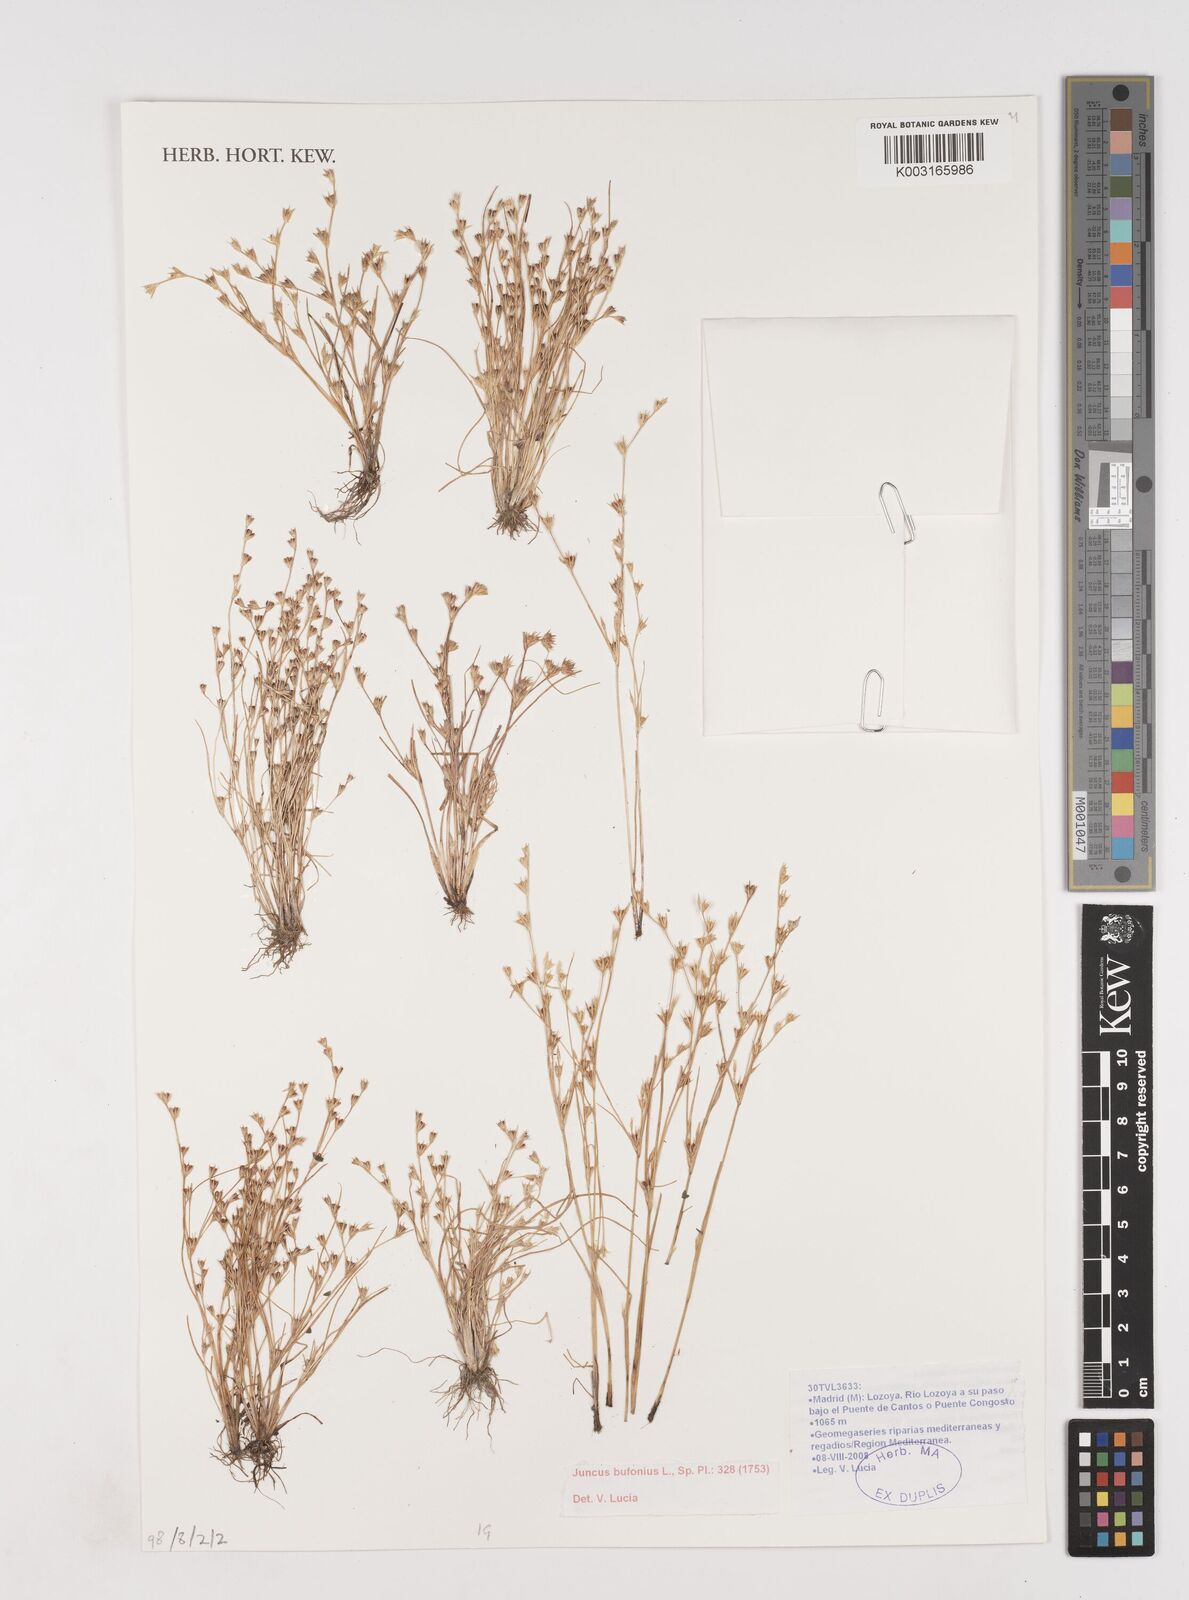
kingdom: Plantae
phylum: Tracheophyta
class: Liliopsida
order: Poales
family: Juncaceae
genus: Juncus
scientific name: Juncus bufonius
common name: Toad rush
